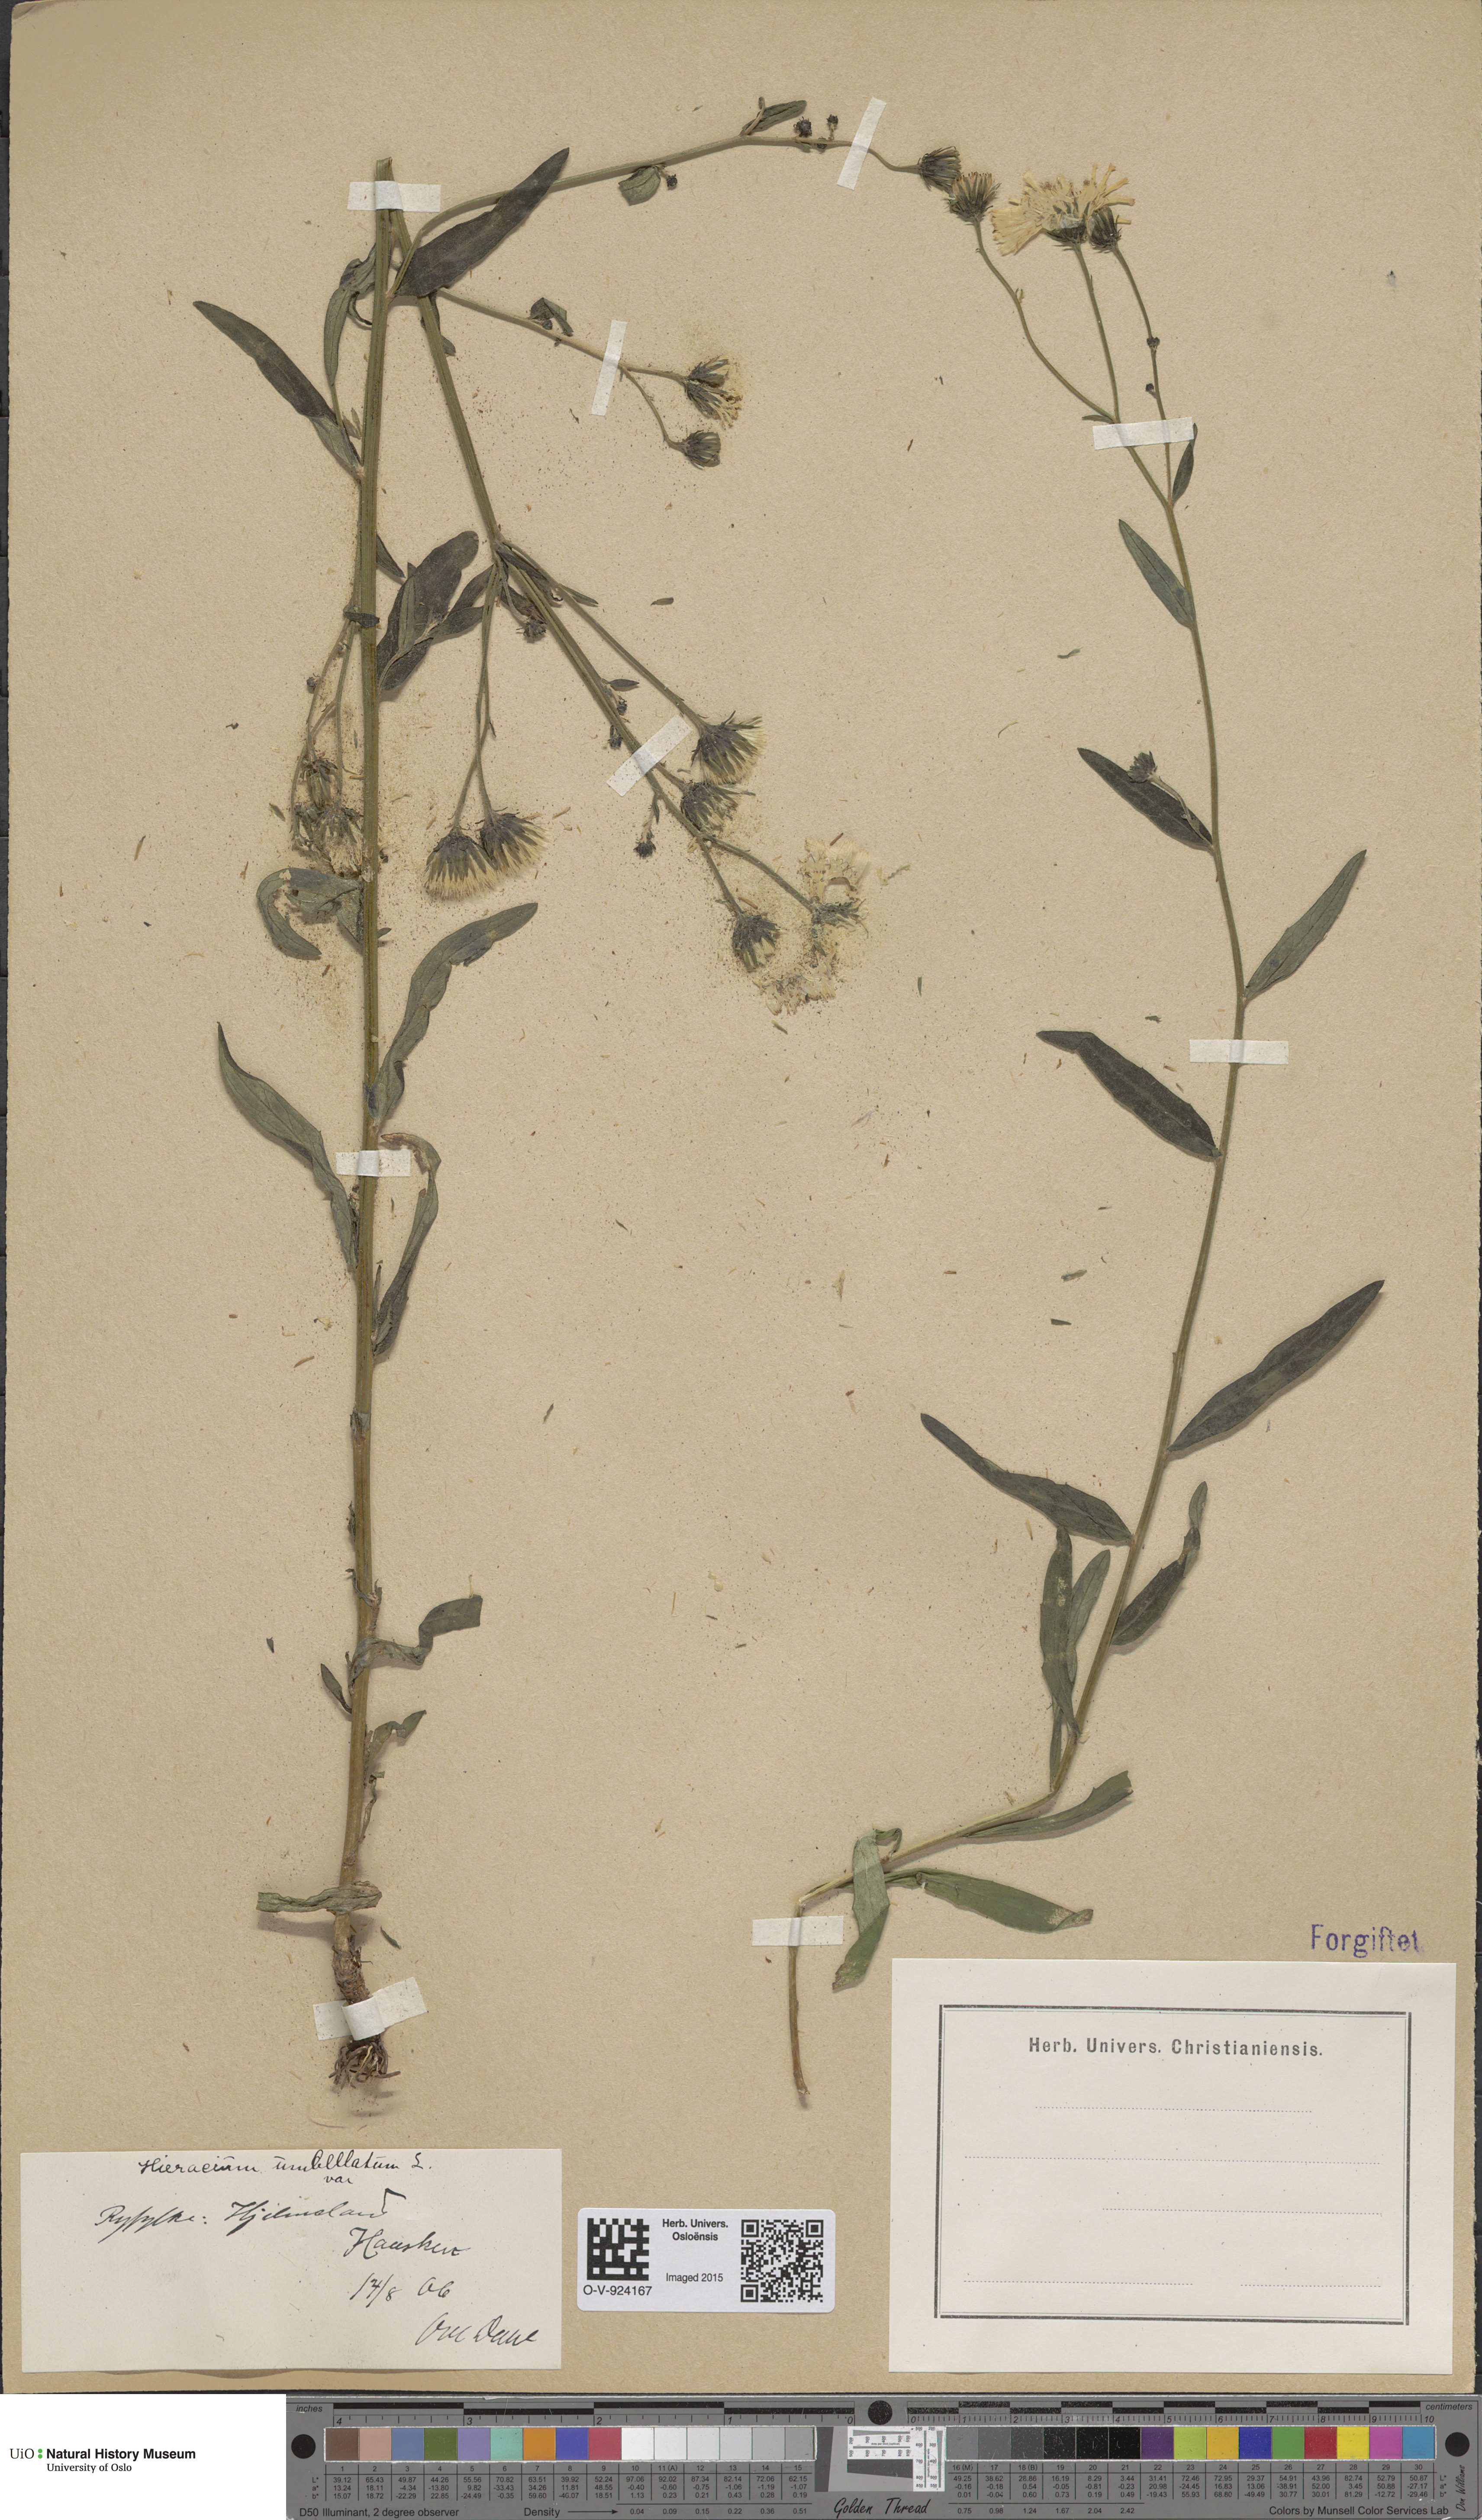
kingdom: Plantae
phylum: Tracheophyta
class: Magnoliopsida
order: Asterales
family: Asteraceae
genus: Hieracium
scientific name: Hieracium umbellatum
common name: Northern hawkweed
